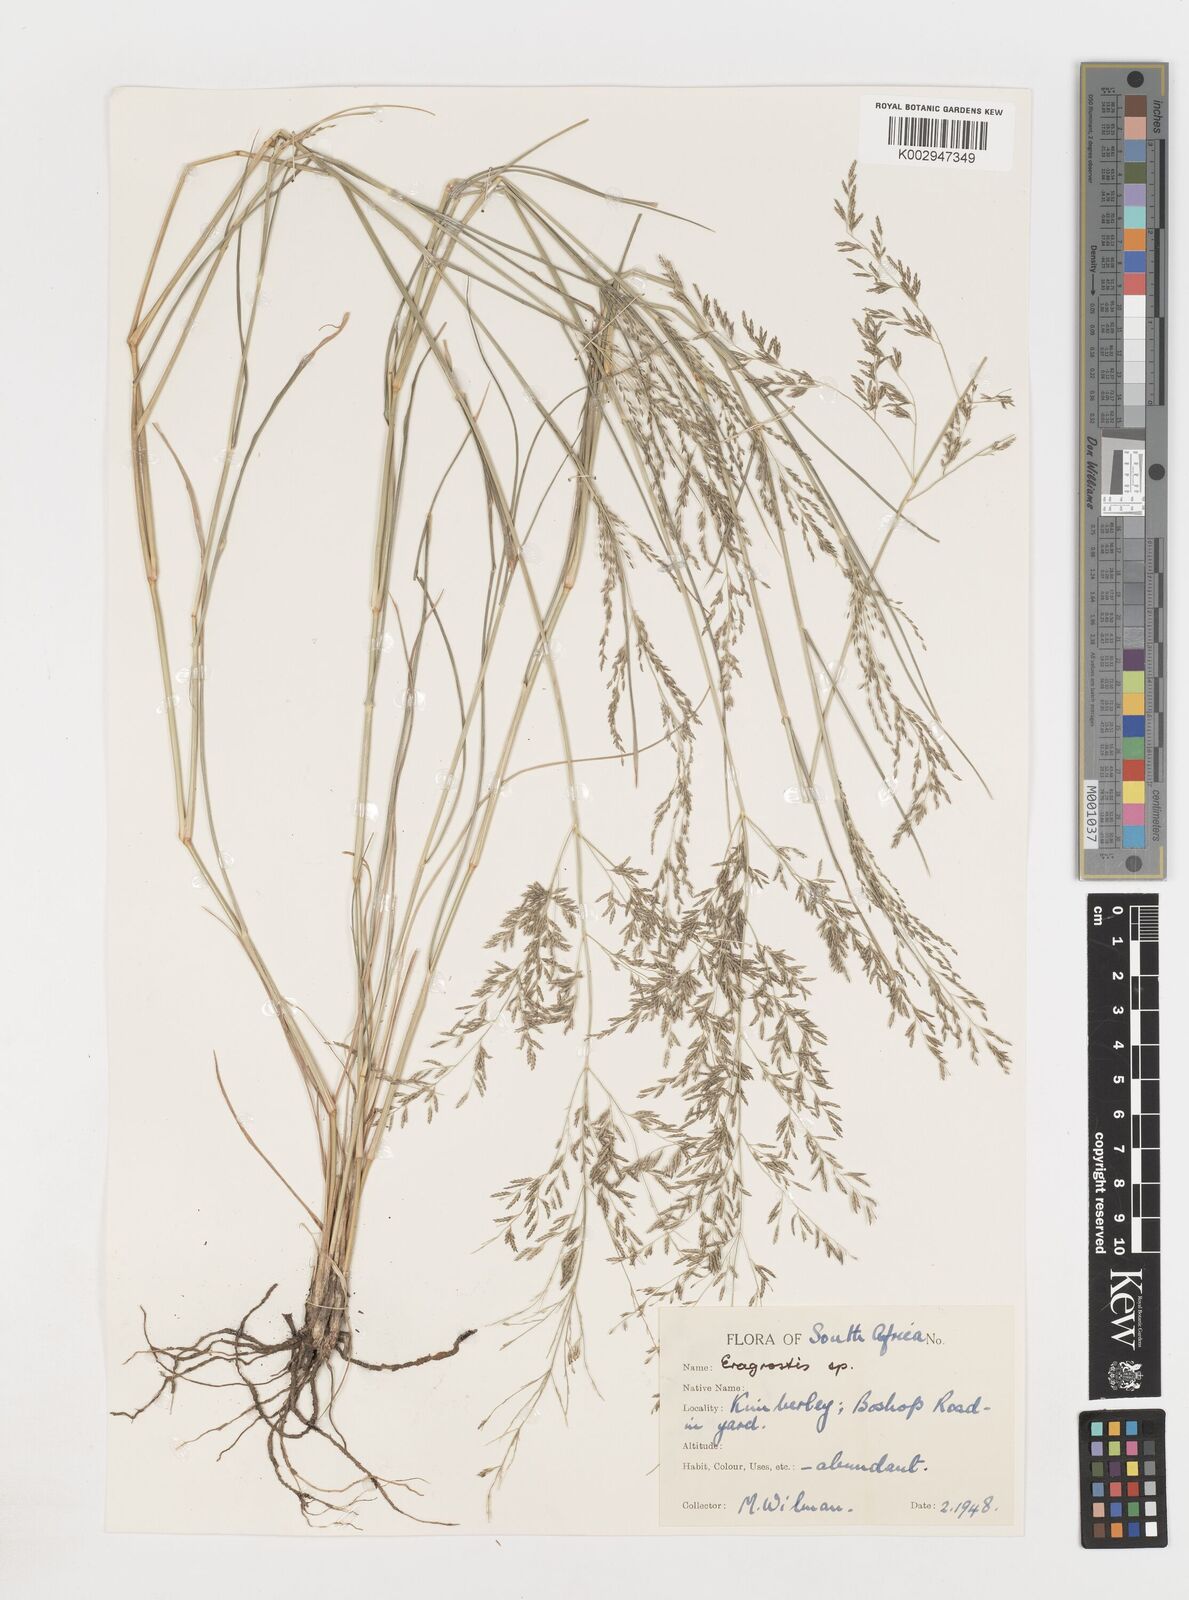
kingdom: Plantae
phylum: Tracheophyta
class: Liliopsida
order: Poales
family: Poaceae
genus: Eragrostis
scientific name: Eragrostis
